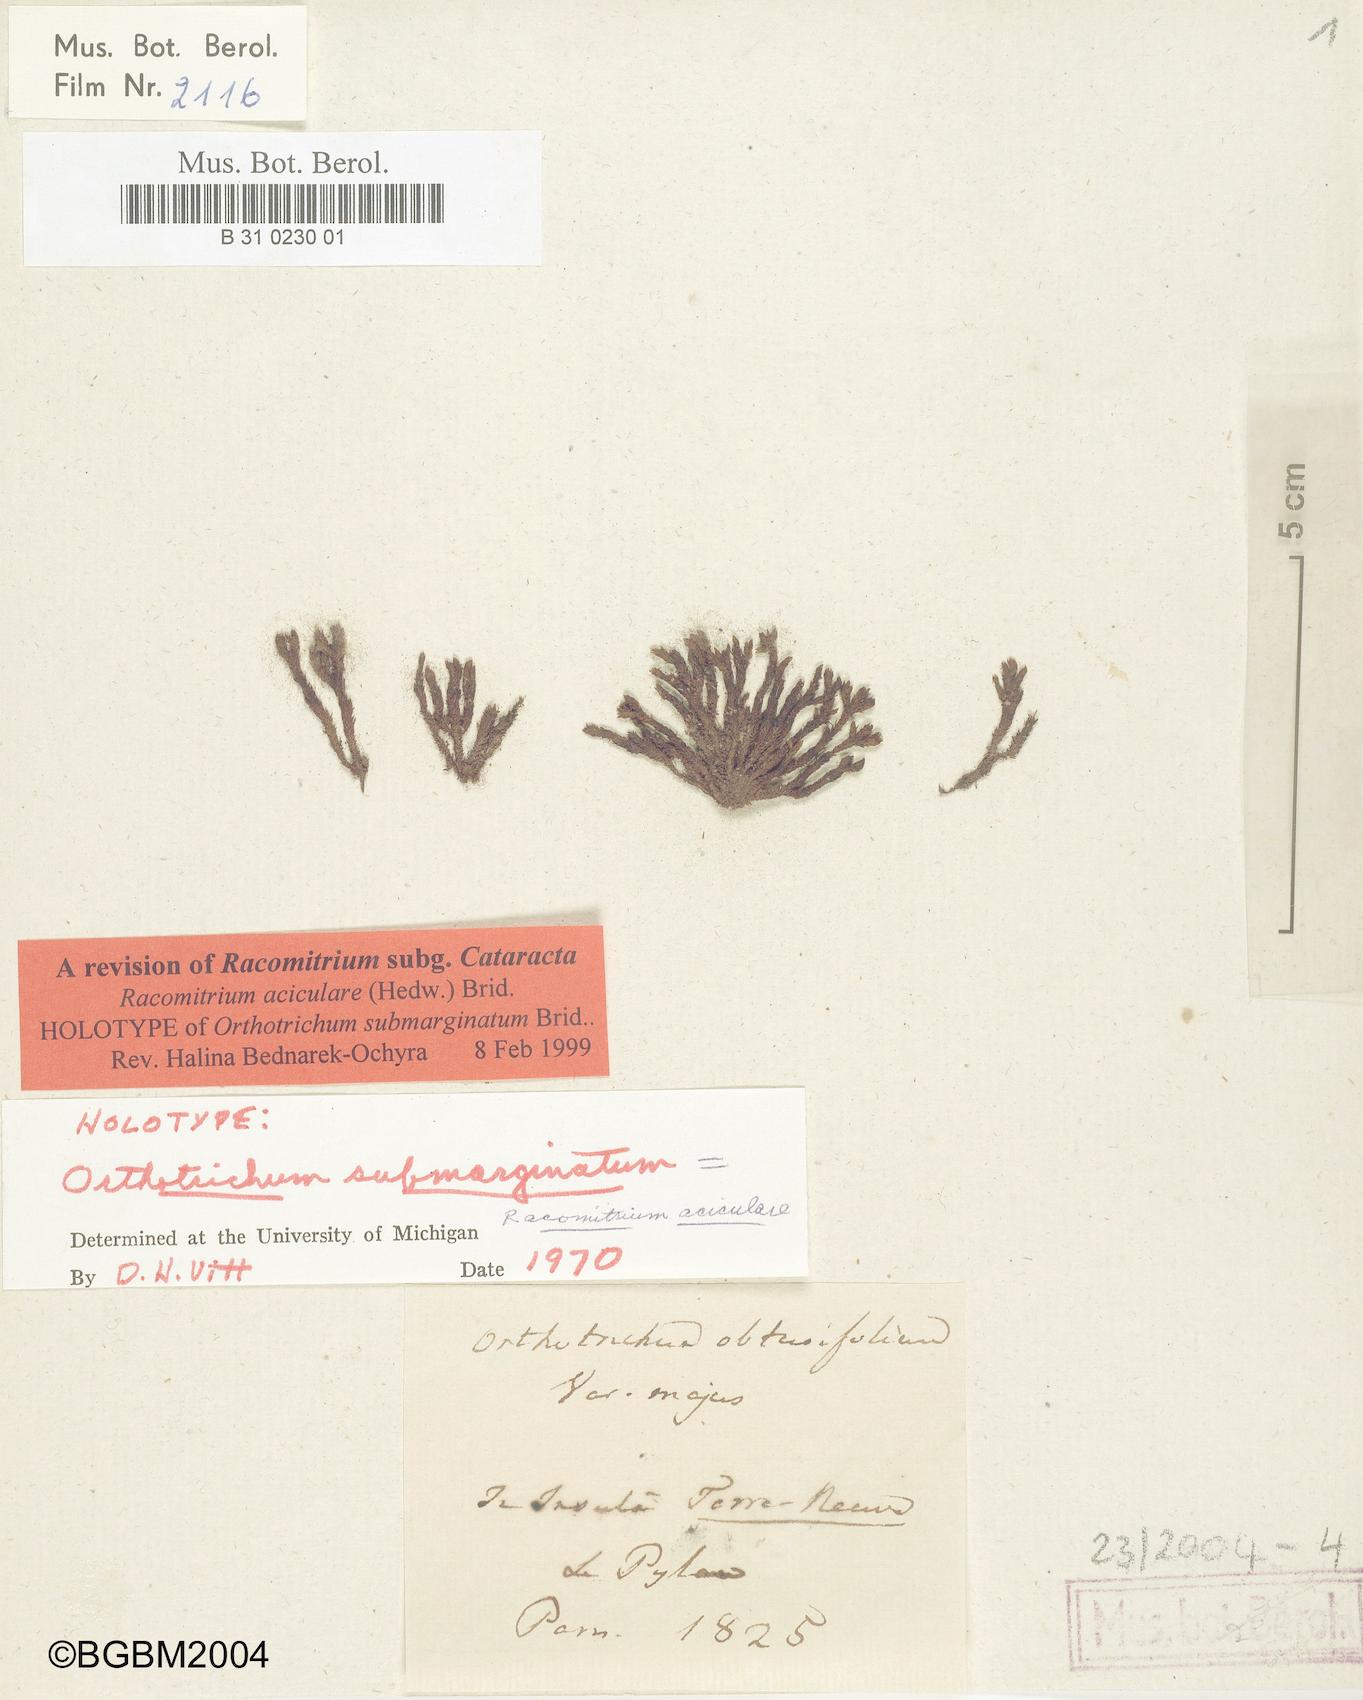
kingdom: Plantae
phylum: Bryophyta
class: Bryopsida
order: Grimmiales
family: Grimmiaceae
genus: Codriophorus
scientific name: Codriophorus acicularis
